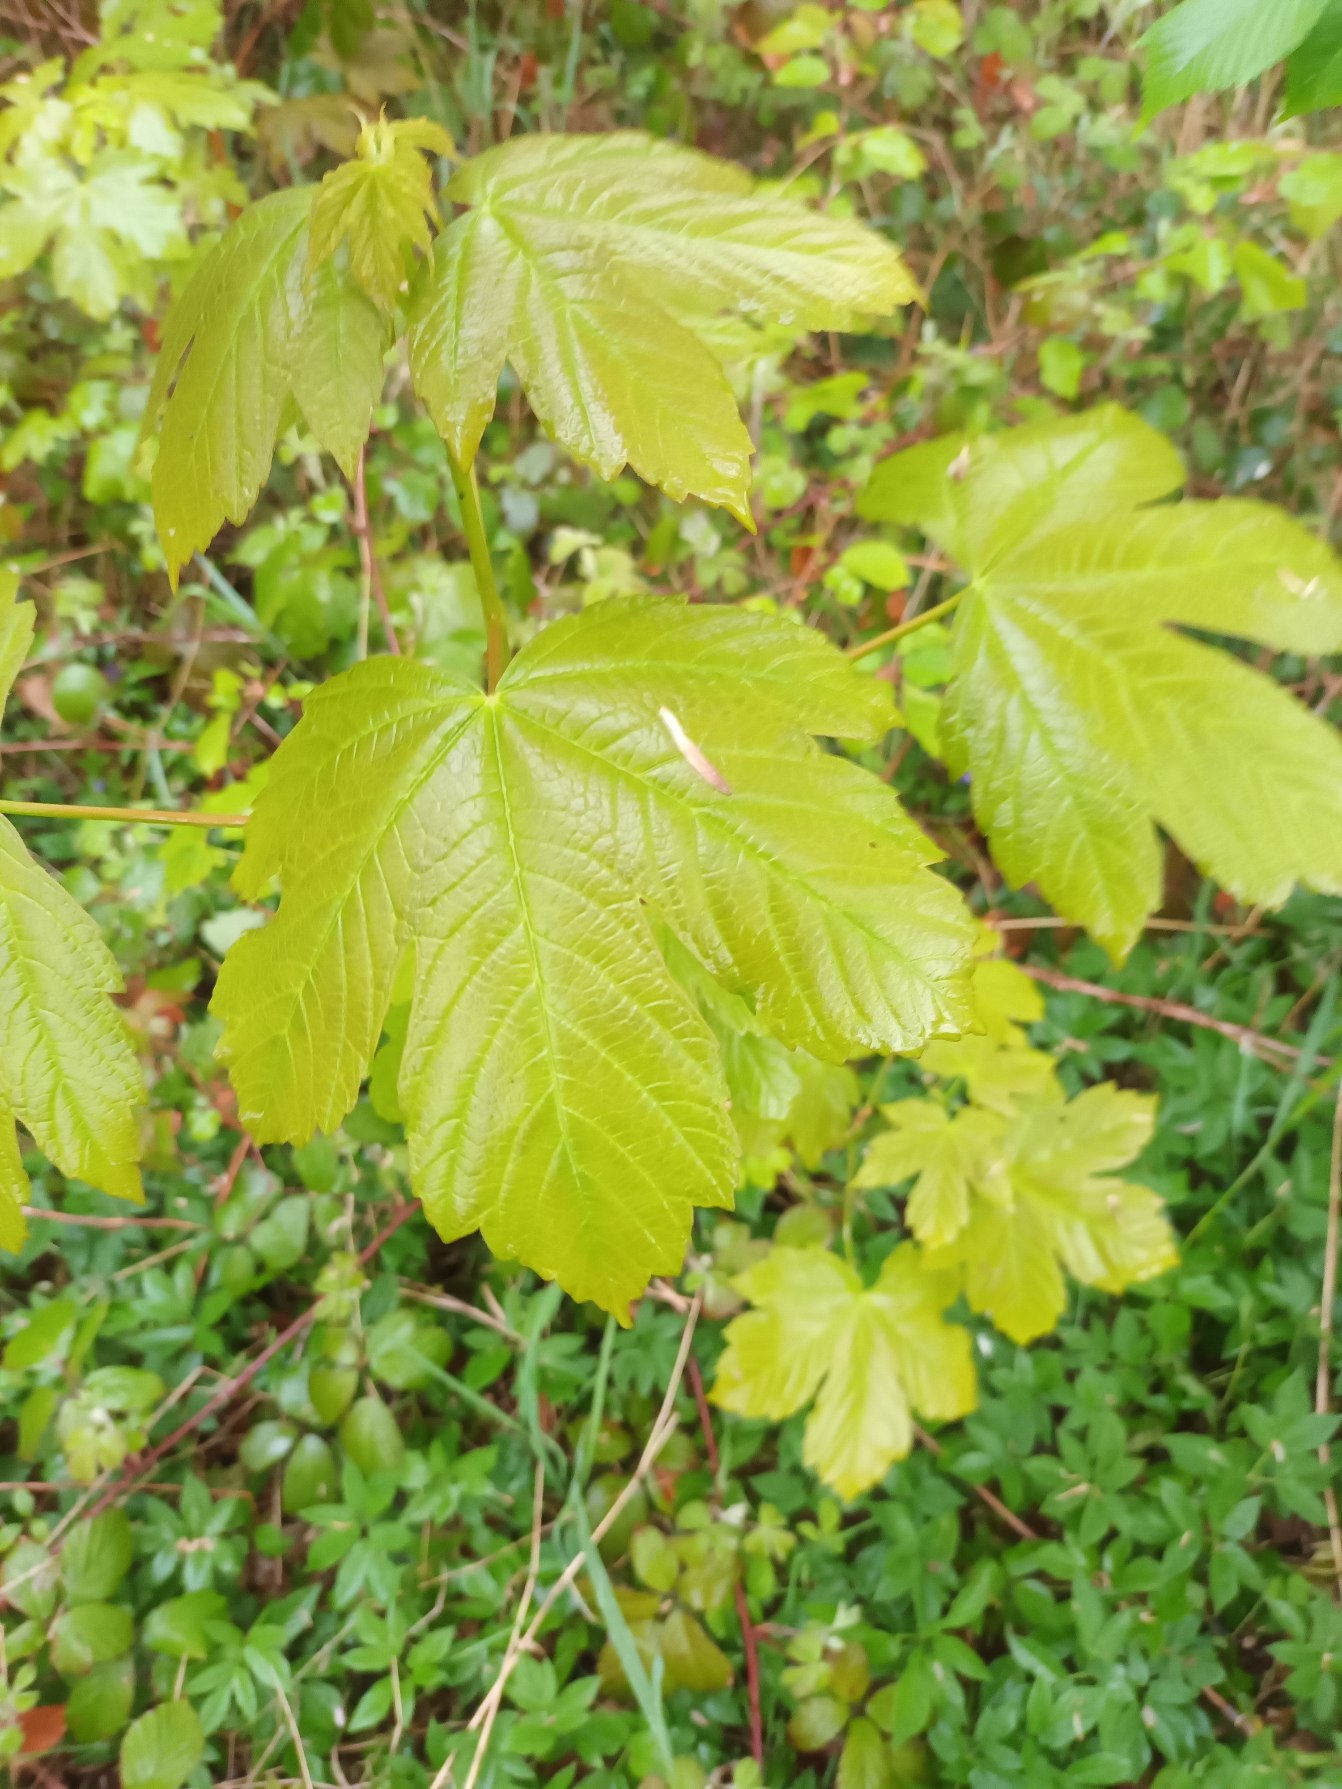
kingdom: Plantae
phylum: Tracheophyta
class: Magnoliopsida
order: Sapindales
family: Sapindaceae
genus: Acer
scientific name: Acer pseudoplatanus
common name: Ahorn
